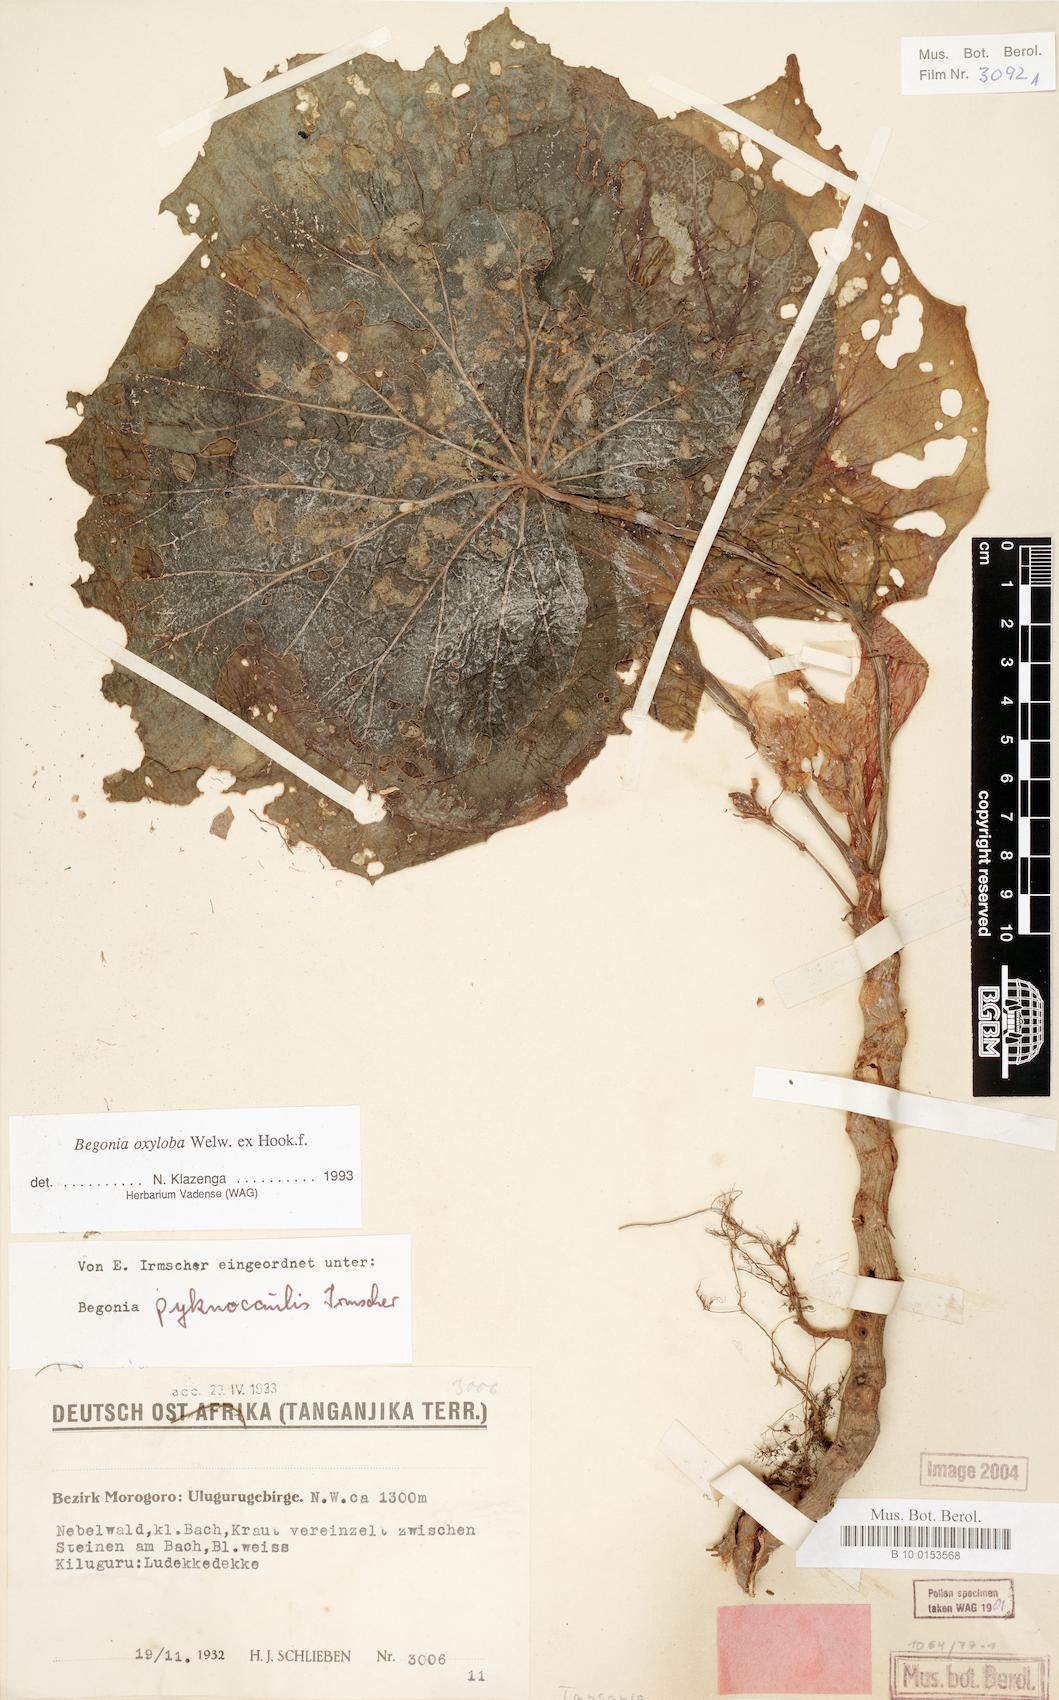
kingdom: Plantae
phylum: Tracheophyta
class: Magnoliopsida
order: Cucurbitales
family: Begoniaceae
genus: Begonia
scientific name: Begonia oxyloba
